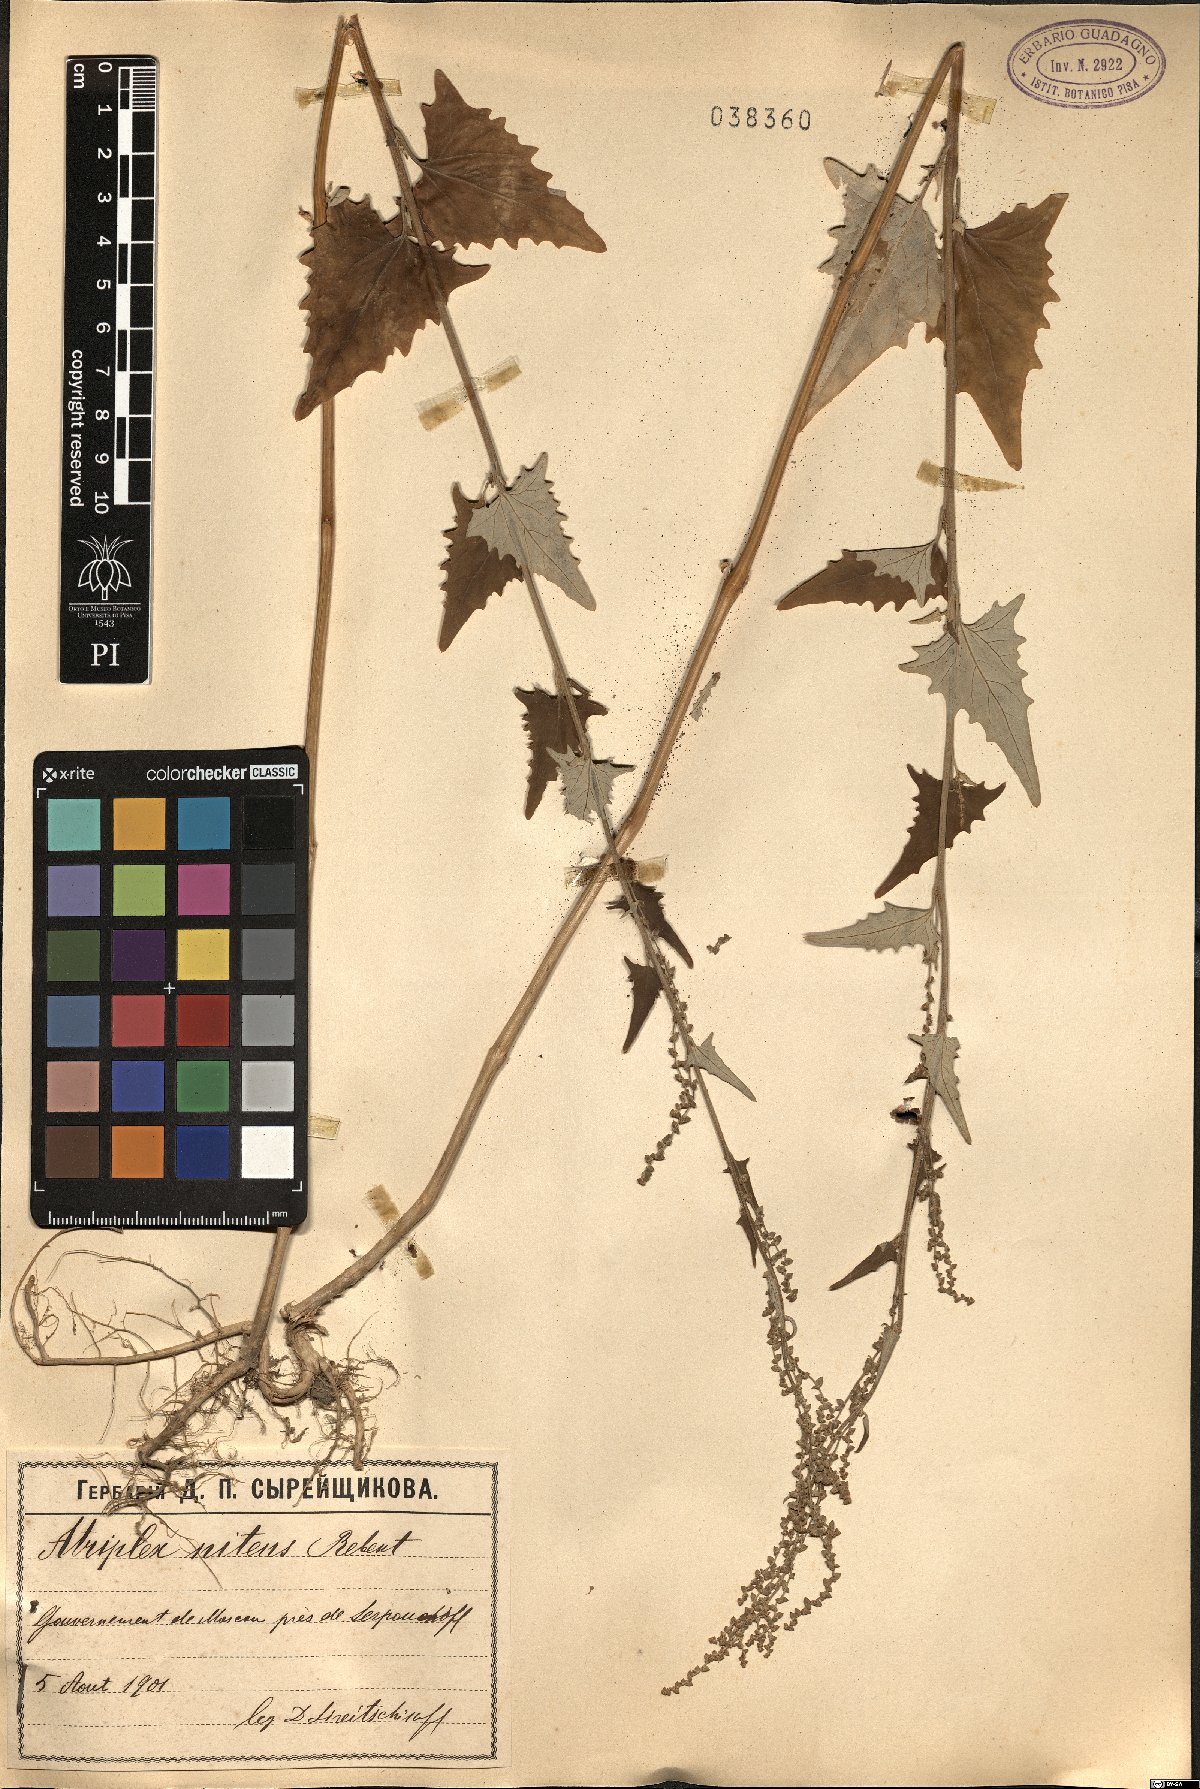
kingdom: Plantae
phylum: Tracheophyta
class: Magnoliopsida
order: Caryophyllales
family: Amaranthaceae
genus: Atriplex
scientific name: Atriplex sagittata
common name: Purple orache
